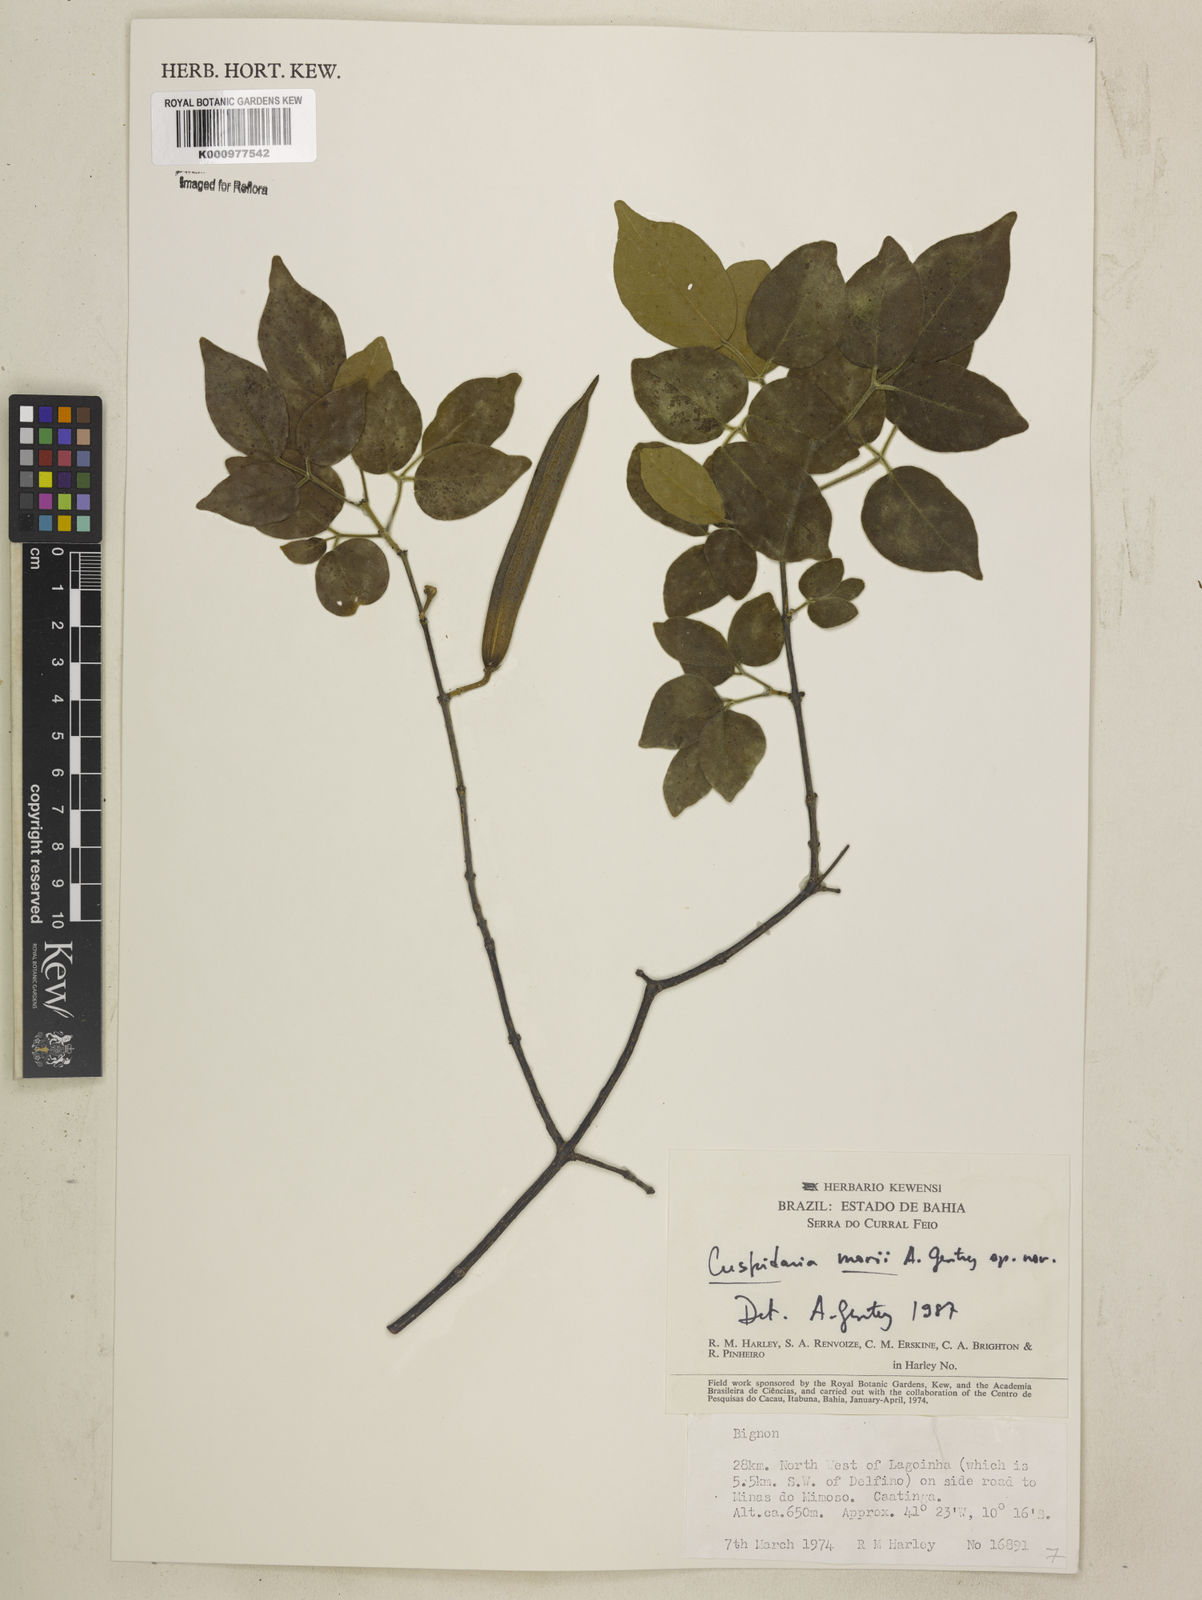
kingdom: Plantae
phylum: Tracheophyta
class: Magnoliopsida
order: Lamiales
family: Bignoniaceae
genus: Cuspidaria
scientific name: Cuspidaria
